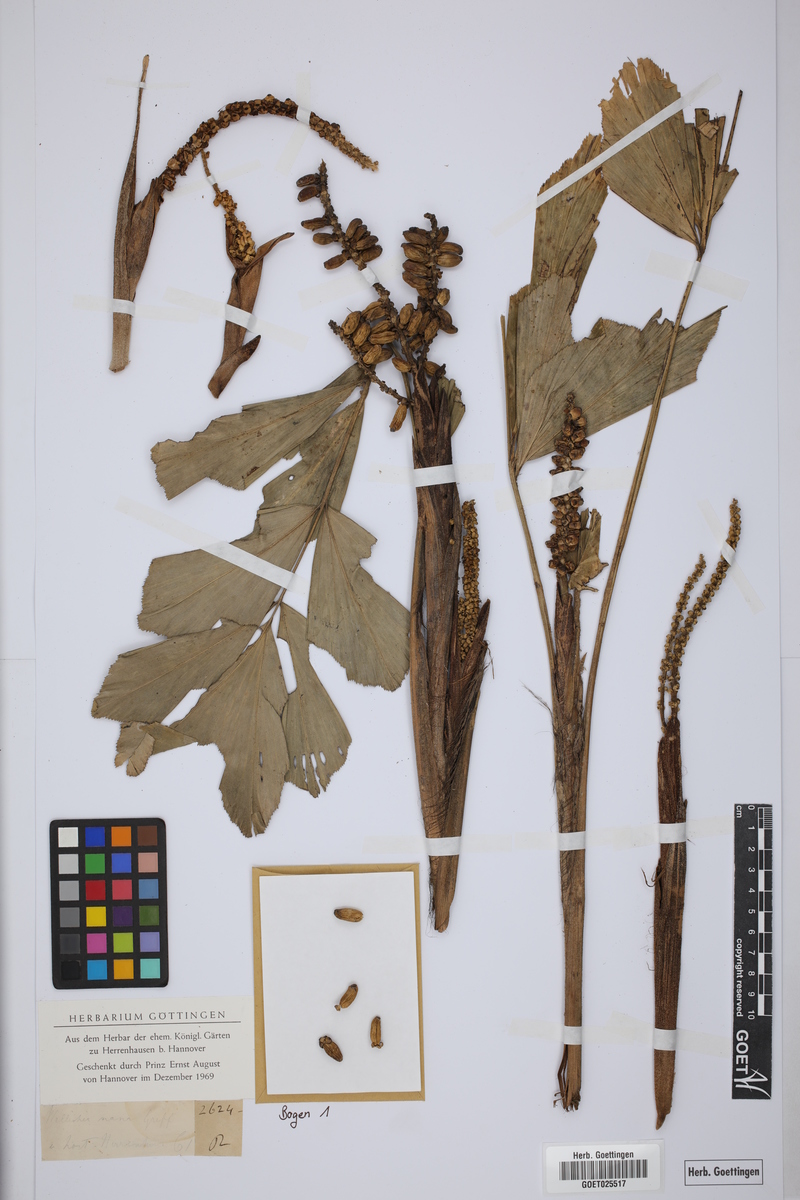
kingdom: Plantae
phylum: Tracheophyta
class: Liliopsida
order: Arecales
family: Arecaceae
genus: Wallichia
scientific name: Wallichia nana
